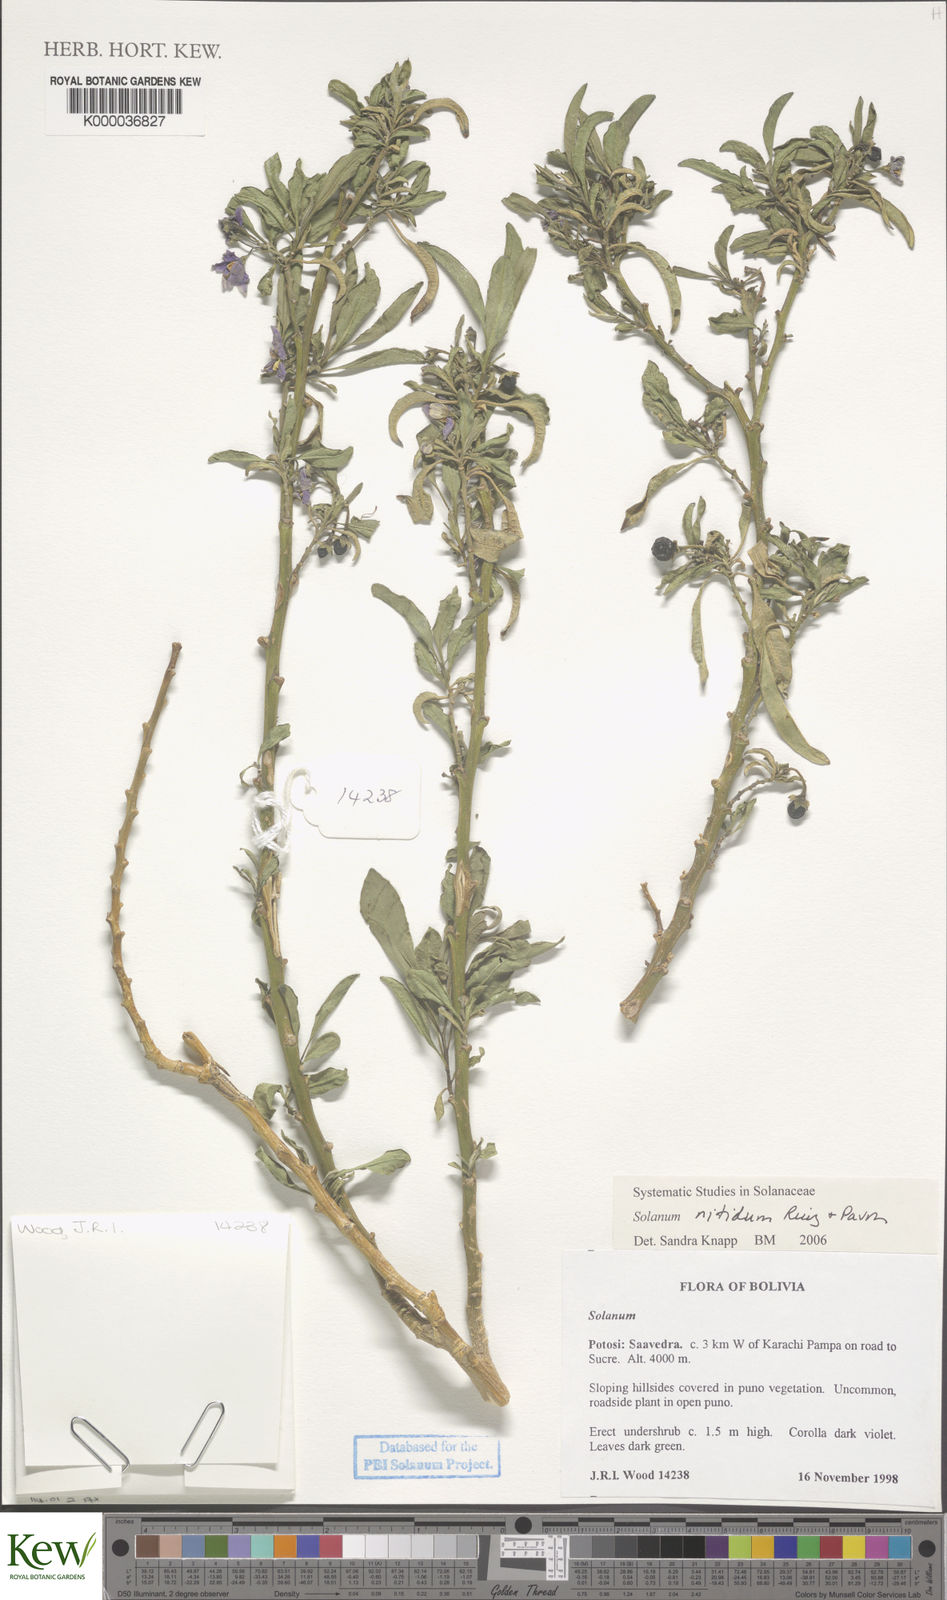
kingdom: Plantae
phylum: Tracheophyta
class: Magnoliopsida
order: Solanales
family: Solanaceae
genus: Solanum
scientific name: Solanum nitidum
